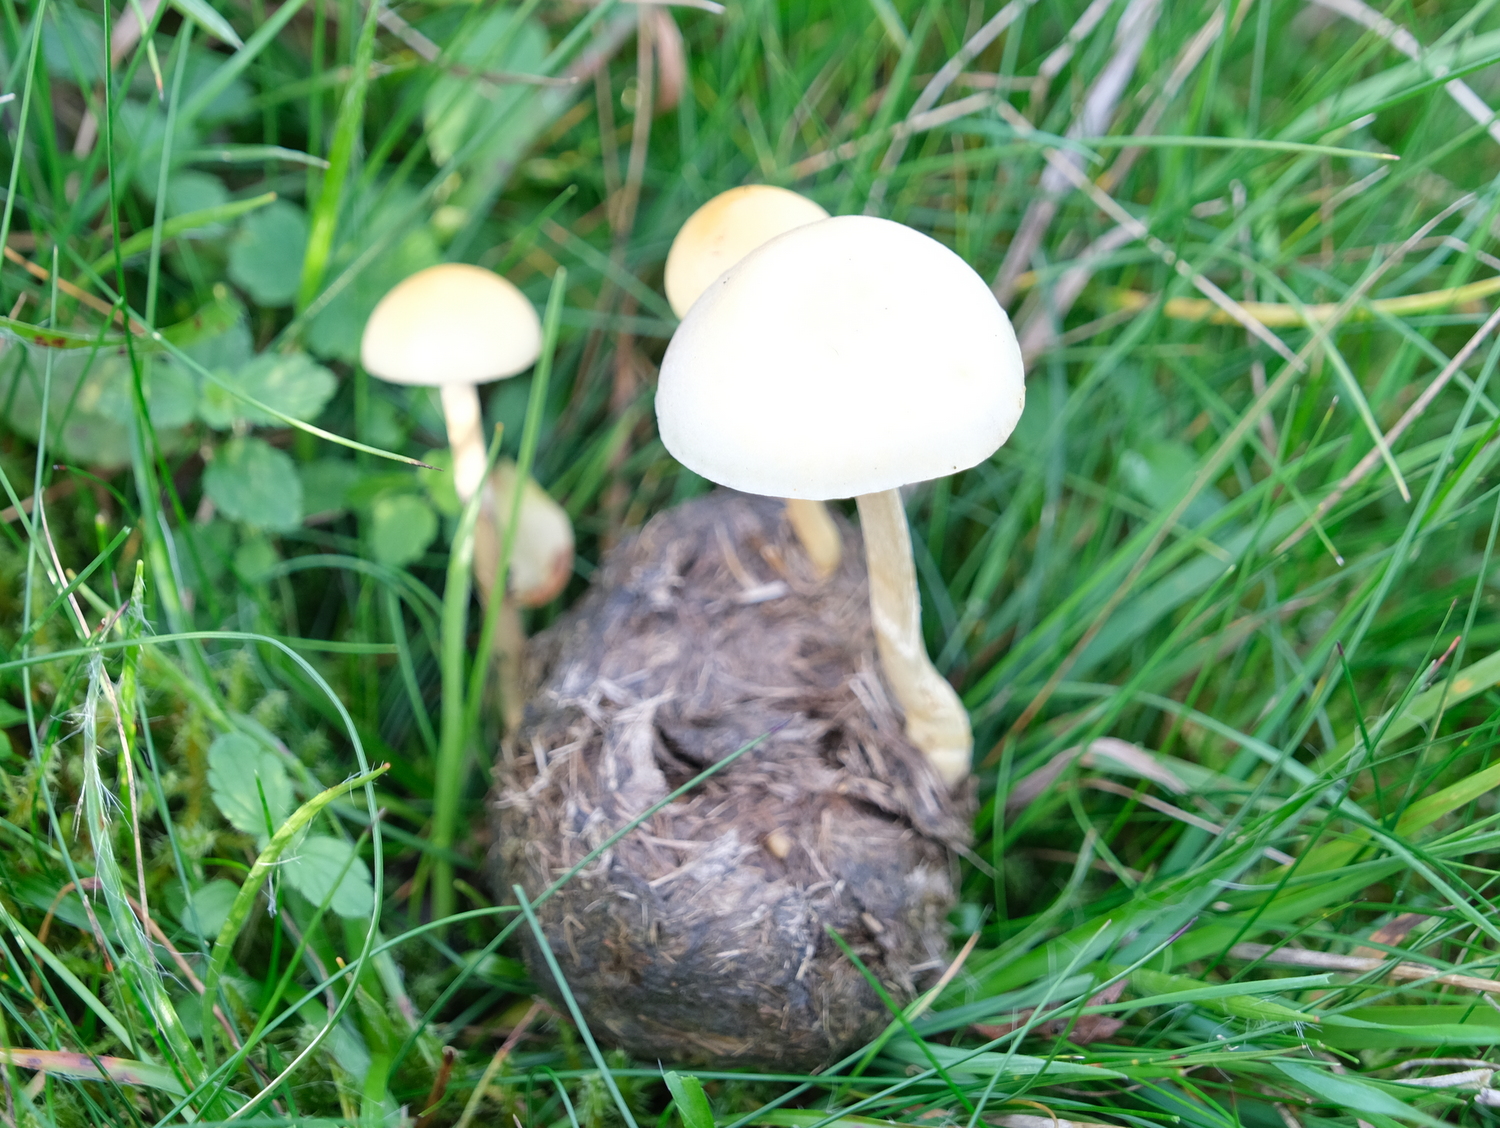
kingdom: Fungi
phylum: Basidiomycota
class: Agaricomycetes
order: Agaricales
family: Strophariaceae
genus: Protostropharia
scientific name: Protostropharia semiglobata
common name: halvkugleformet bredblad
